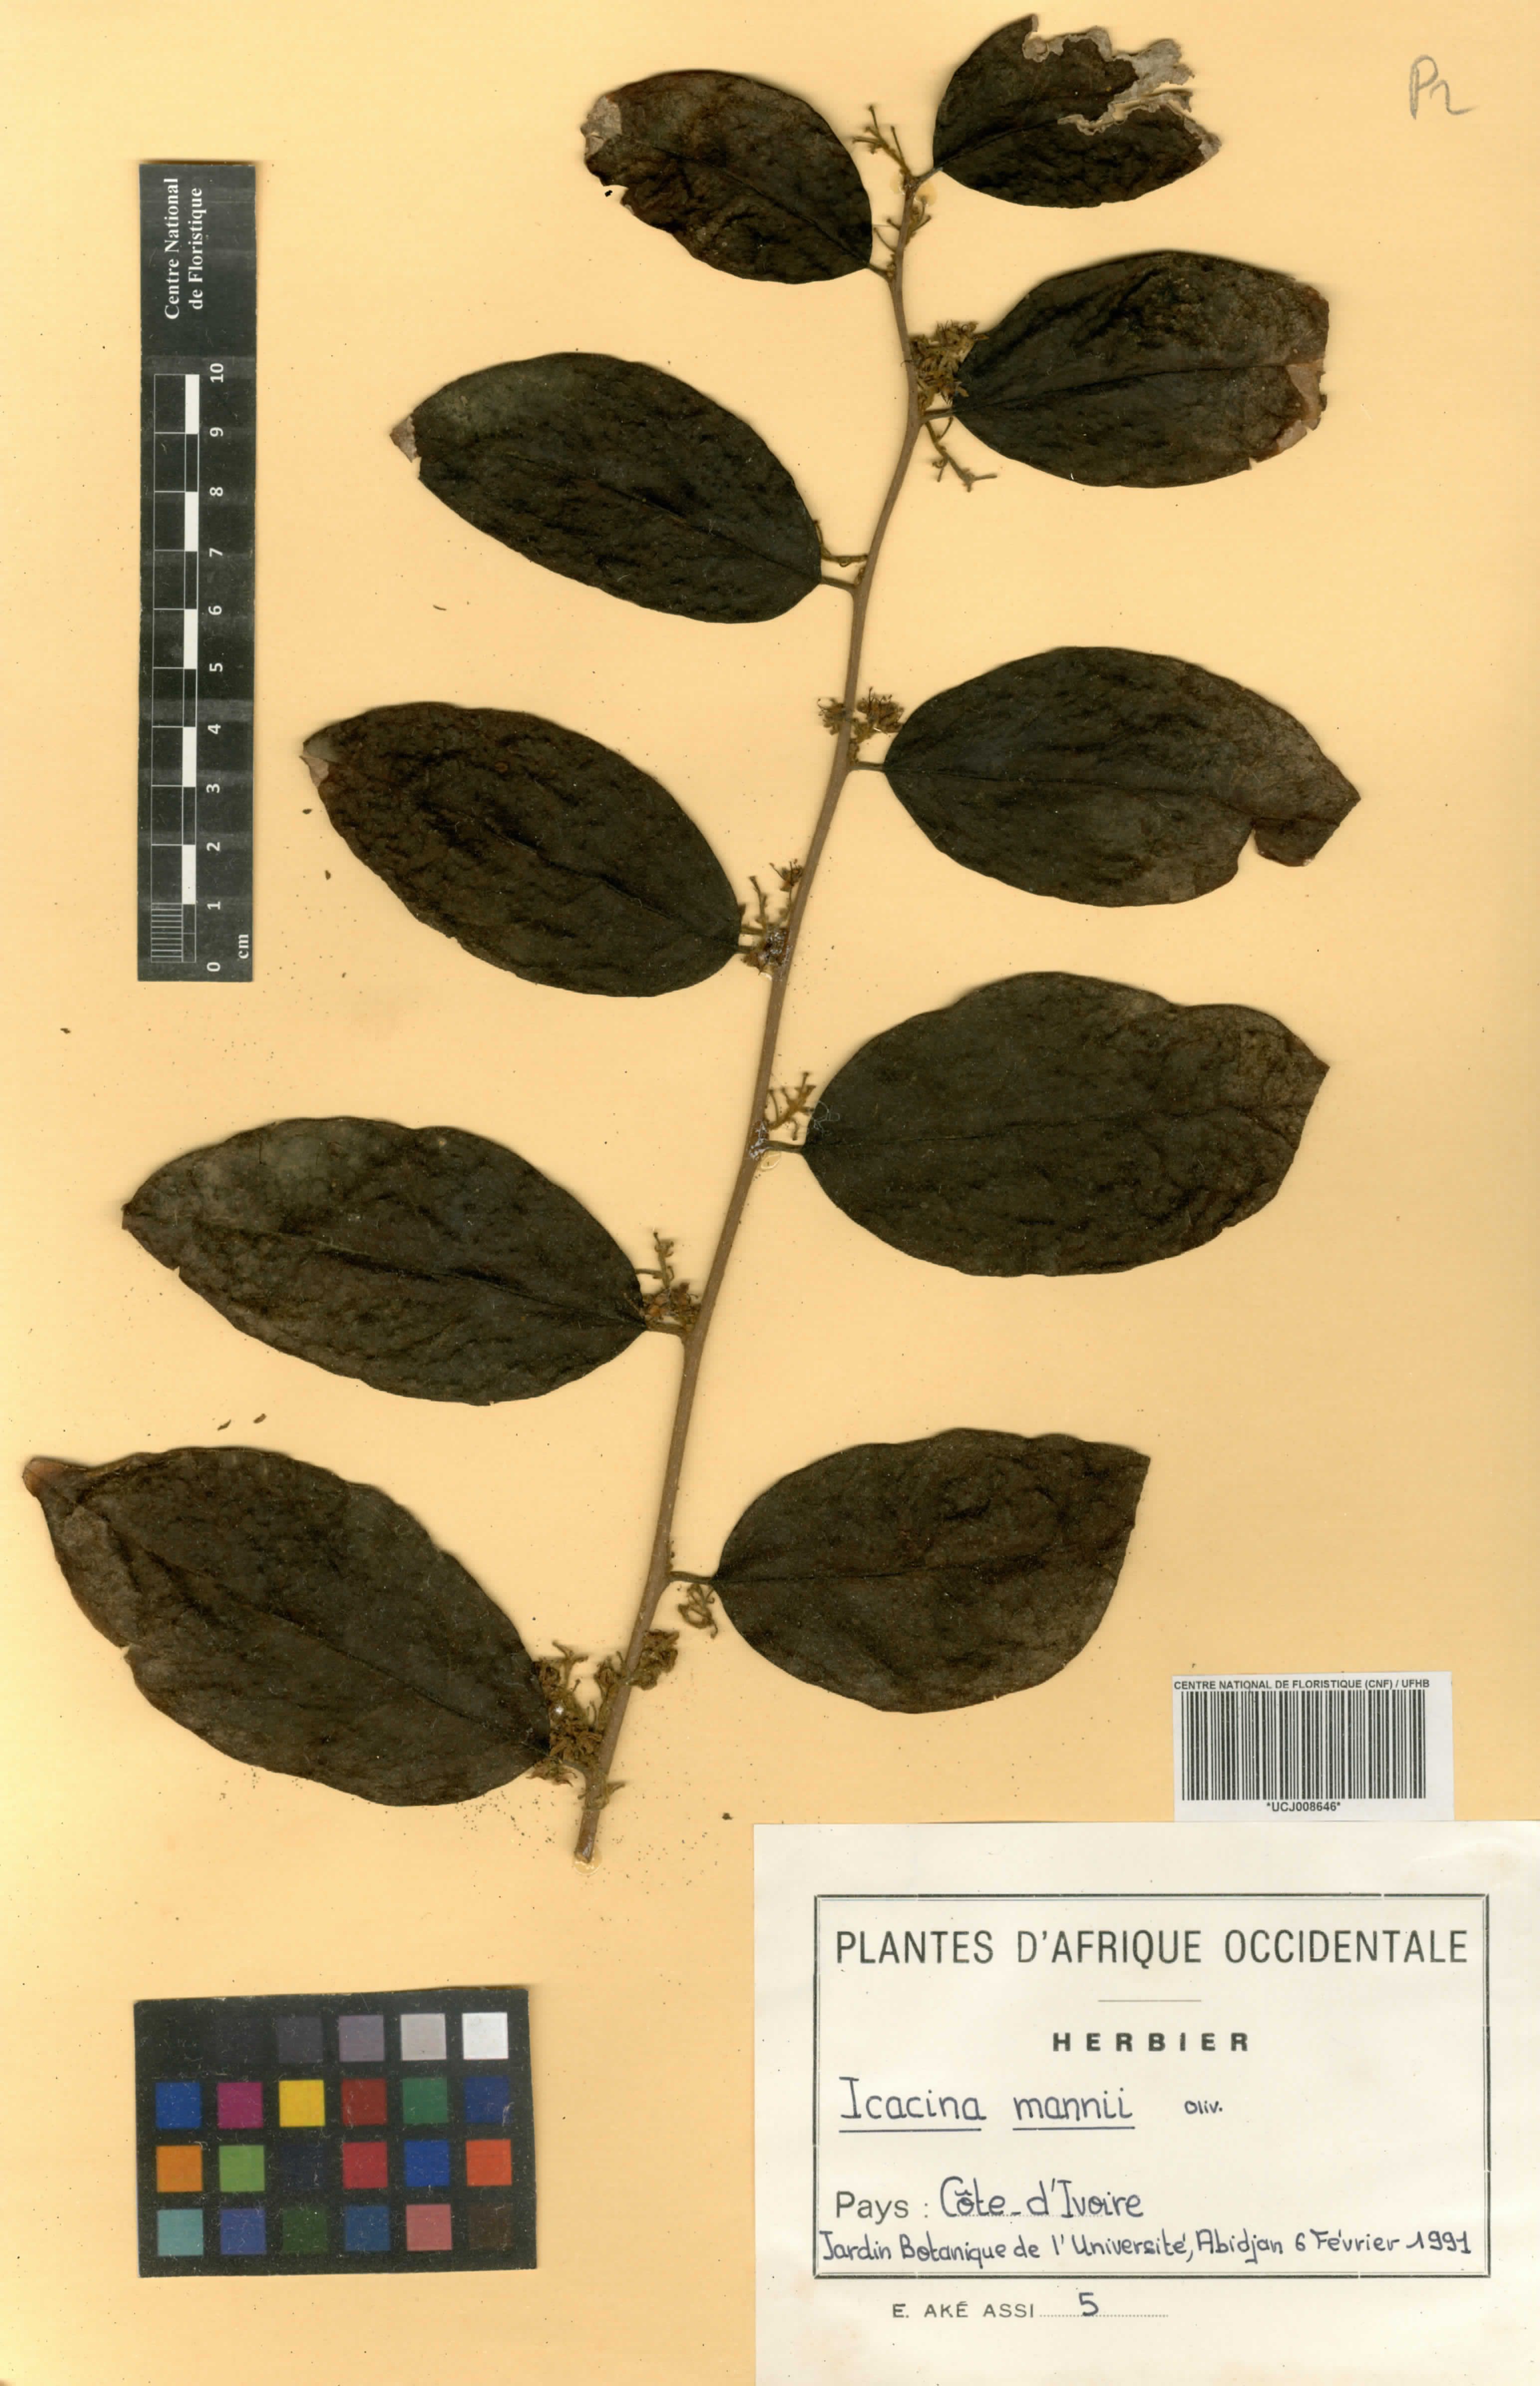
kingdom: Plantae
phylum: Tracheophyta
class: Magnoliopsida
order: Icacinales
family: Icacinaceae
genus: Icacina
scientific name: Icacina mannii
